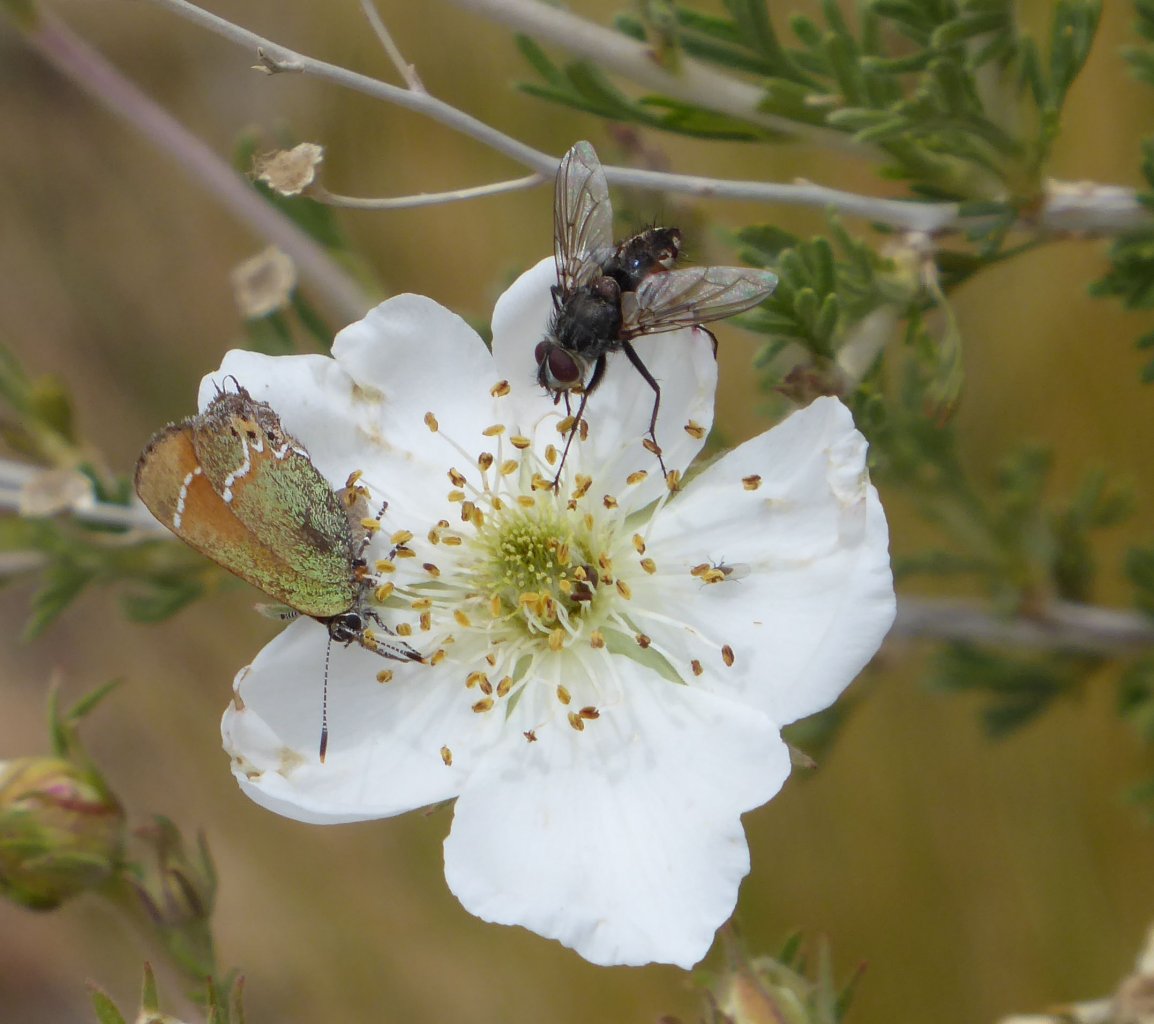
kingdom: Animalia
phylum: Arthropoda
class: Insecta
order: Lepidoptera
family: Lycaenidae
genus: Mitoura
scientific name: Mitoura gryneus
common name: Juniper Hairstreak
